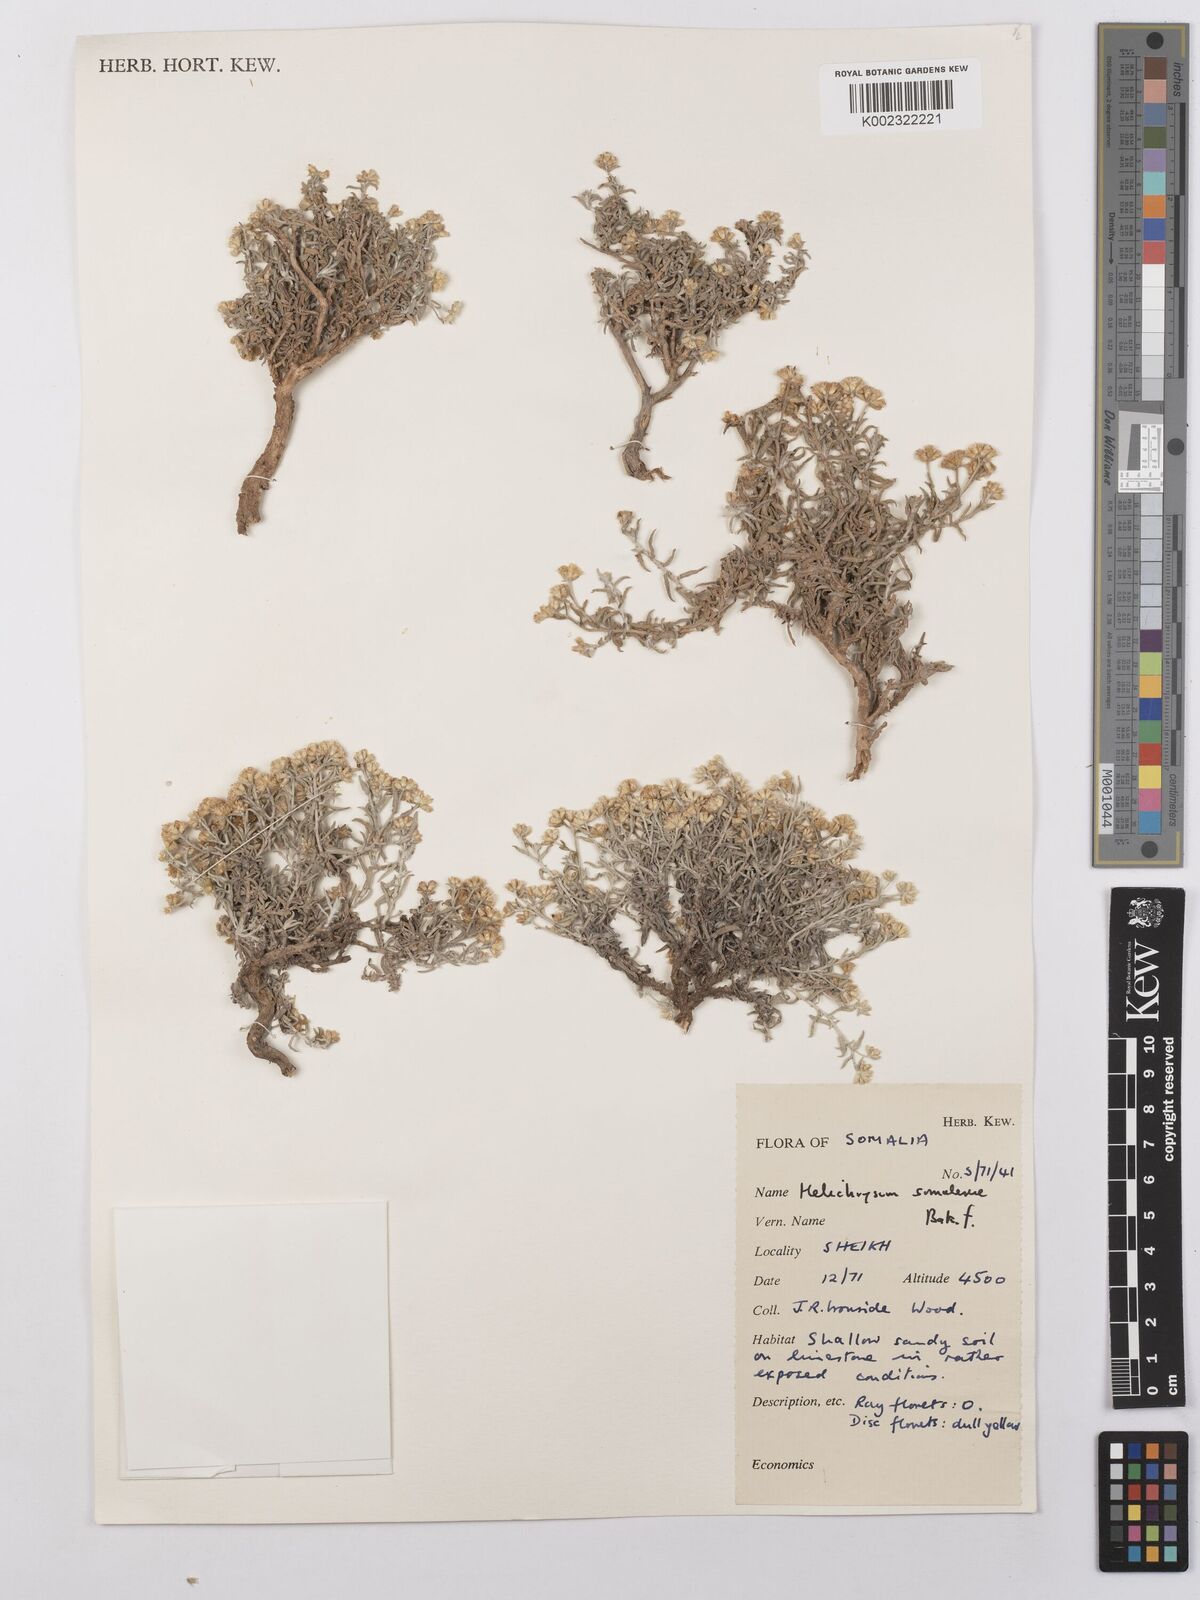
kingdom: Plantae
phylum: Tracheophyta
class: Magnoliopsida
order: Asterales
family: Asteraceae
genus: Helichrysum
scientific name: Helichrysum pumilum
